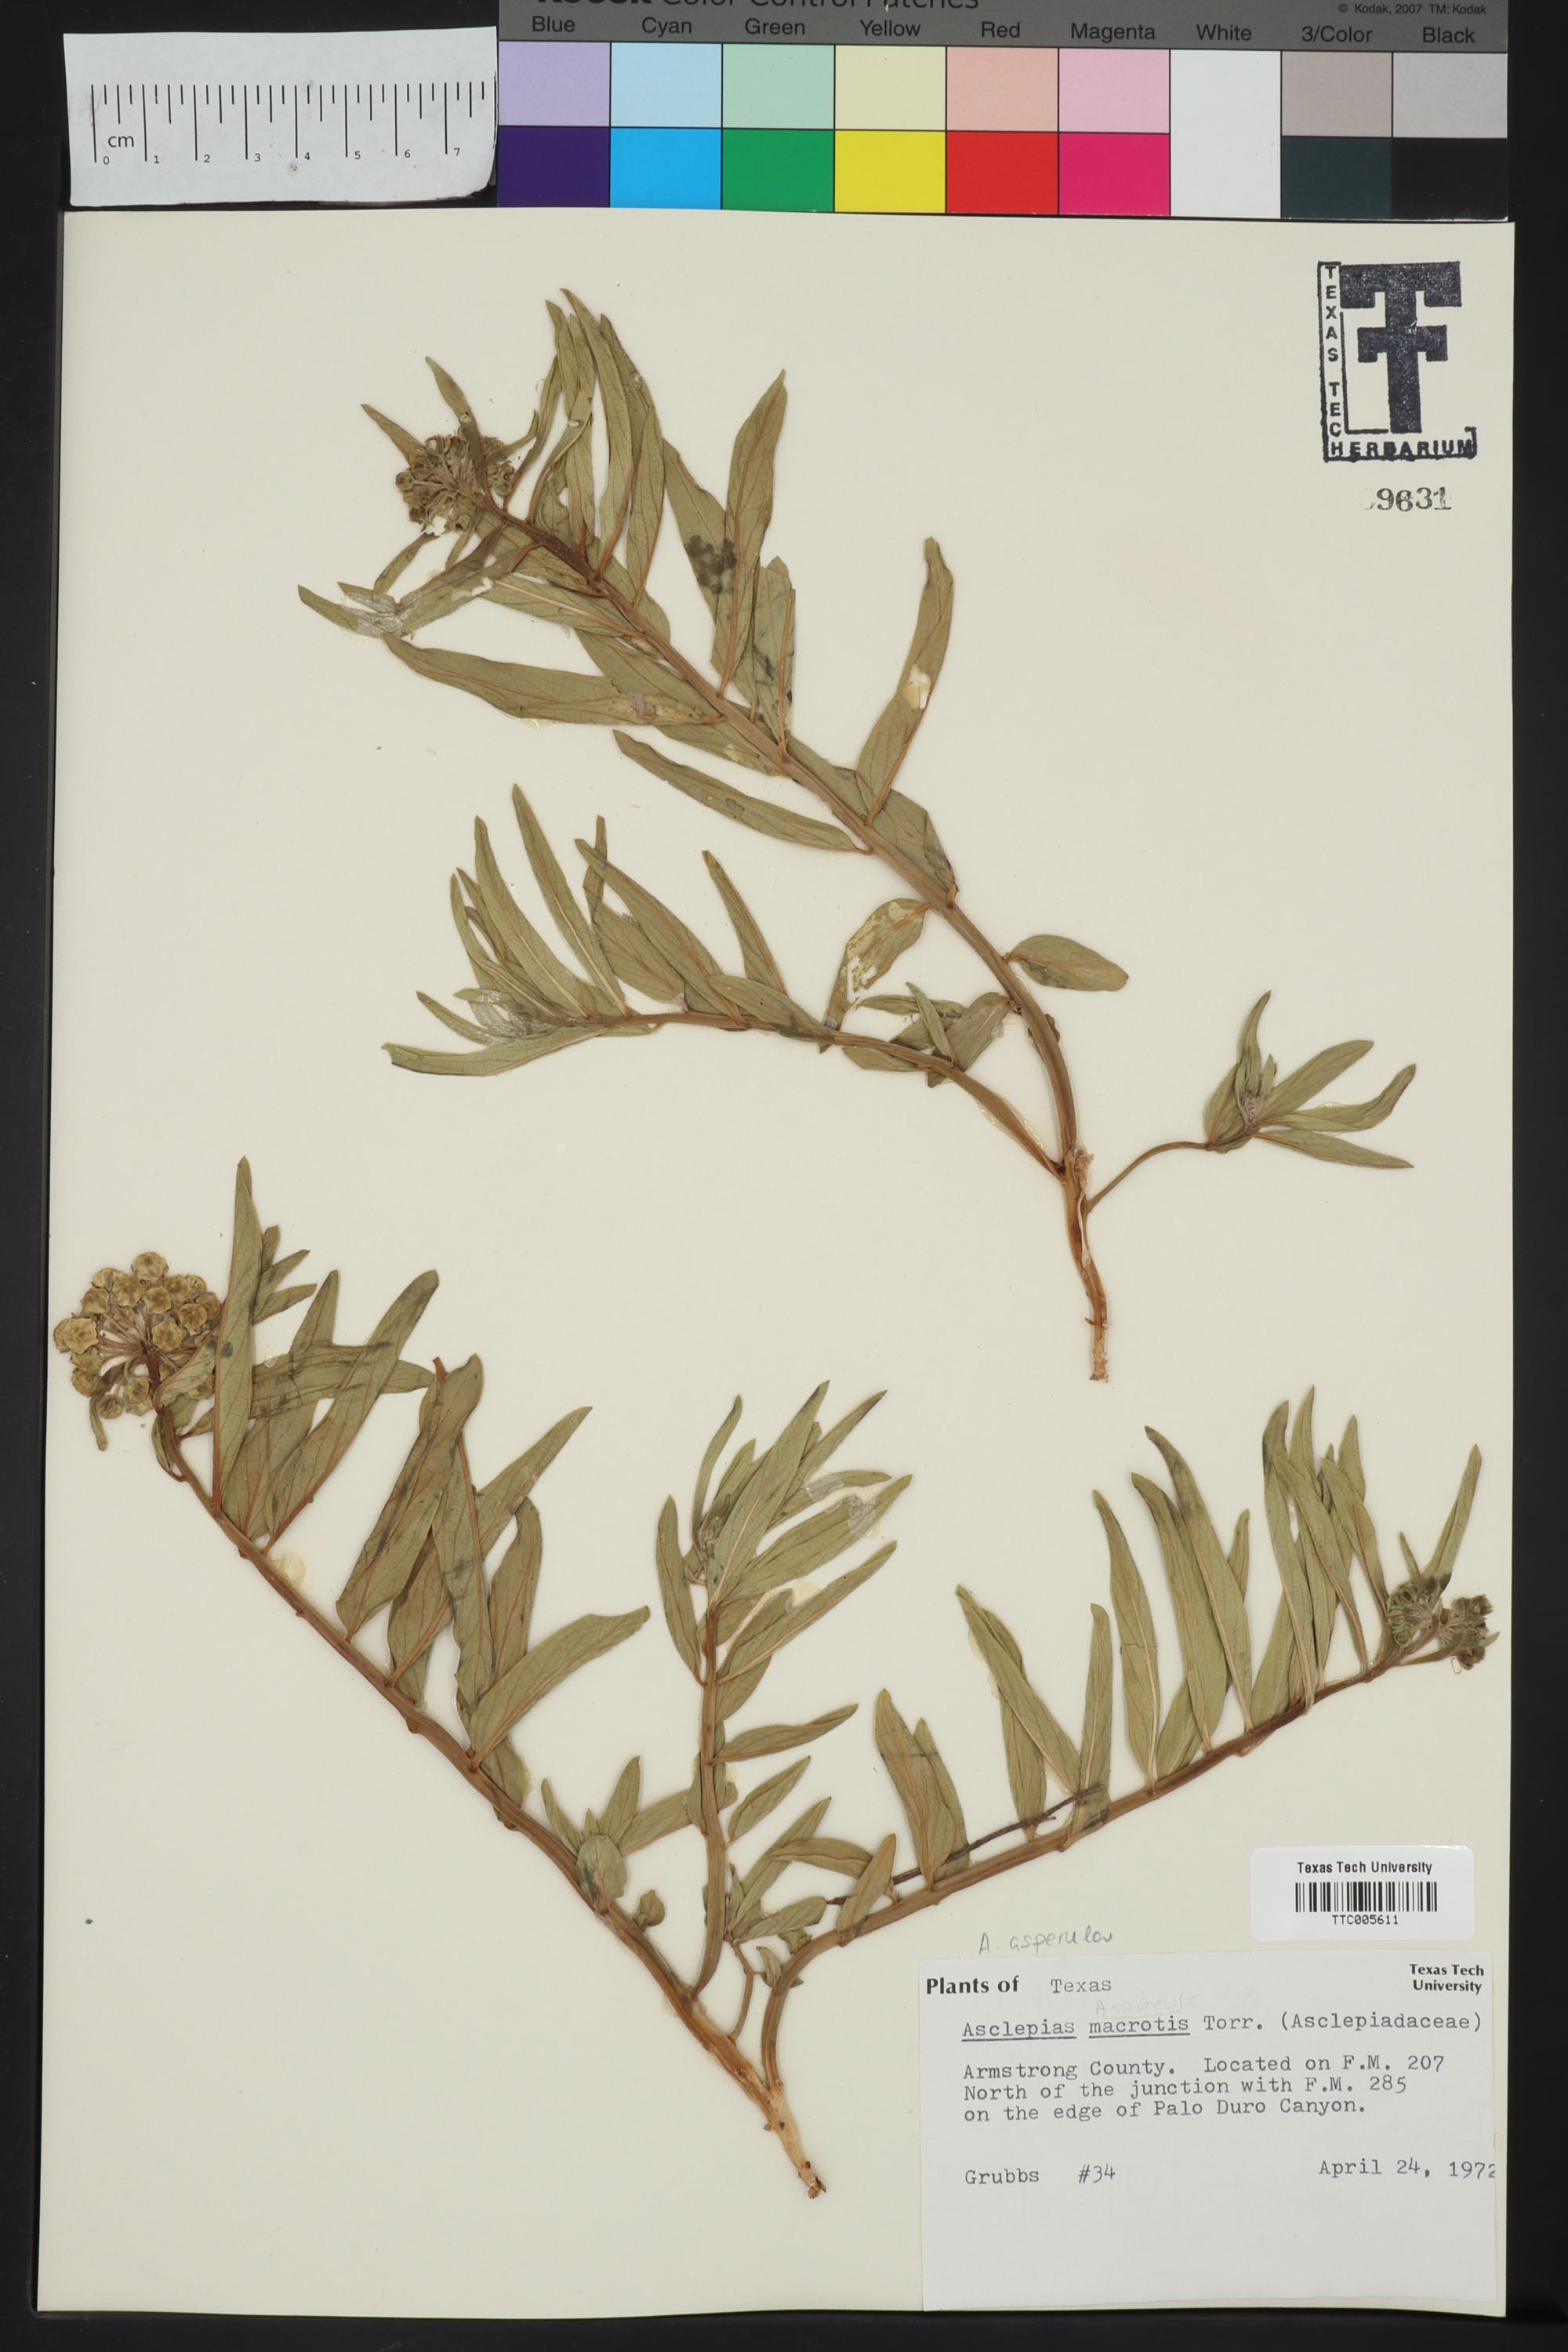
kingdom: Plantae
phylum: Tracheophyta
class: Magnoliopsida
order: Gentianales
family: Apocynaceae
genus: Asclepias
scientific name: Asclepias asperula
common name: Antelope horns
